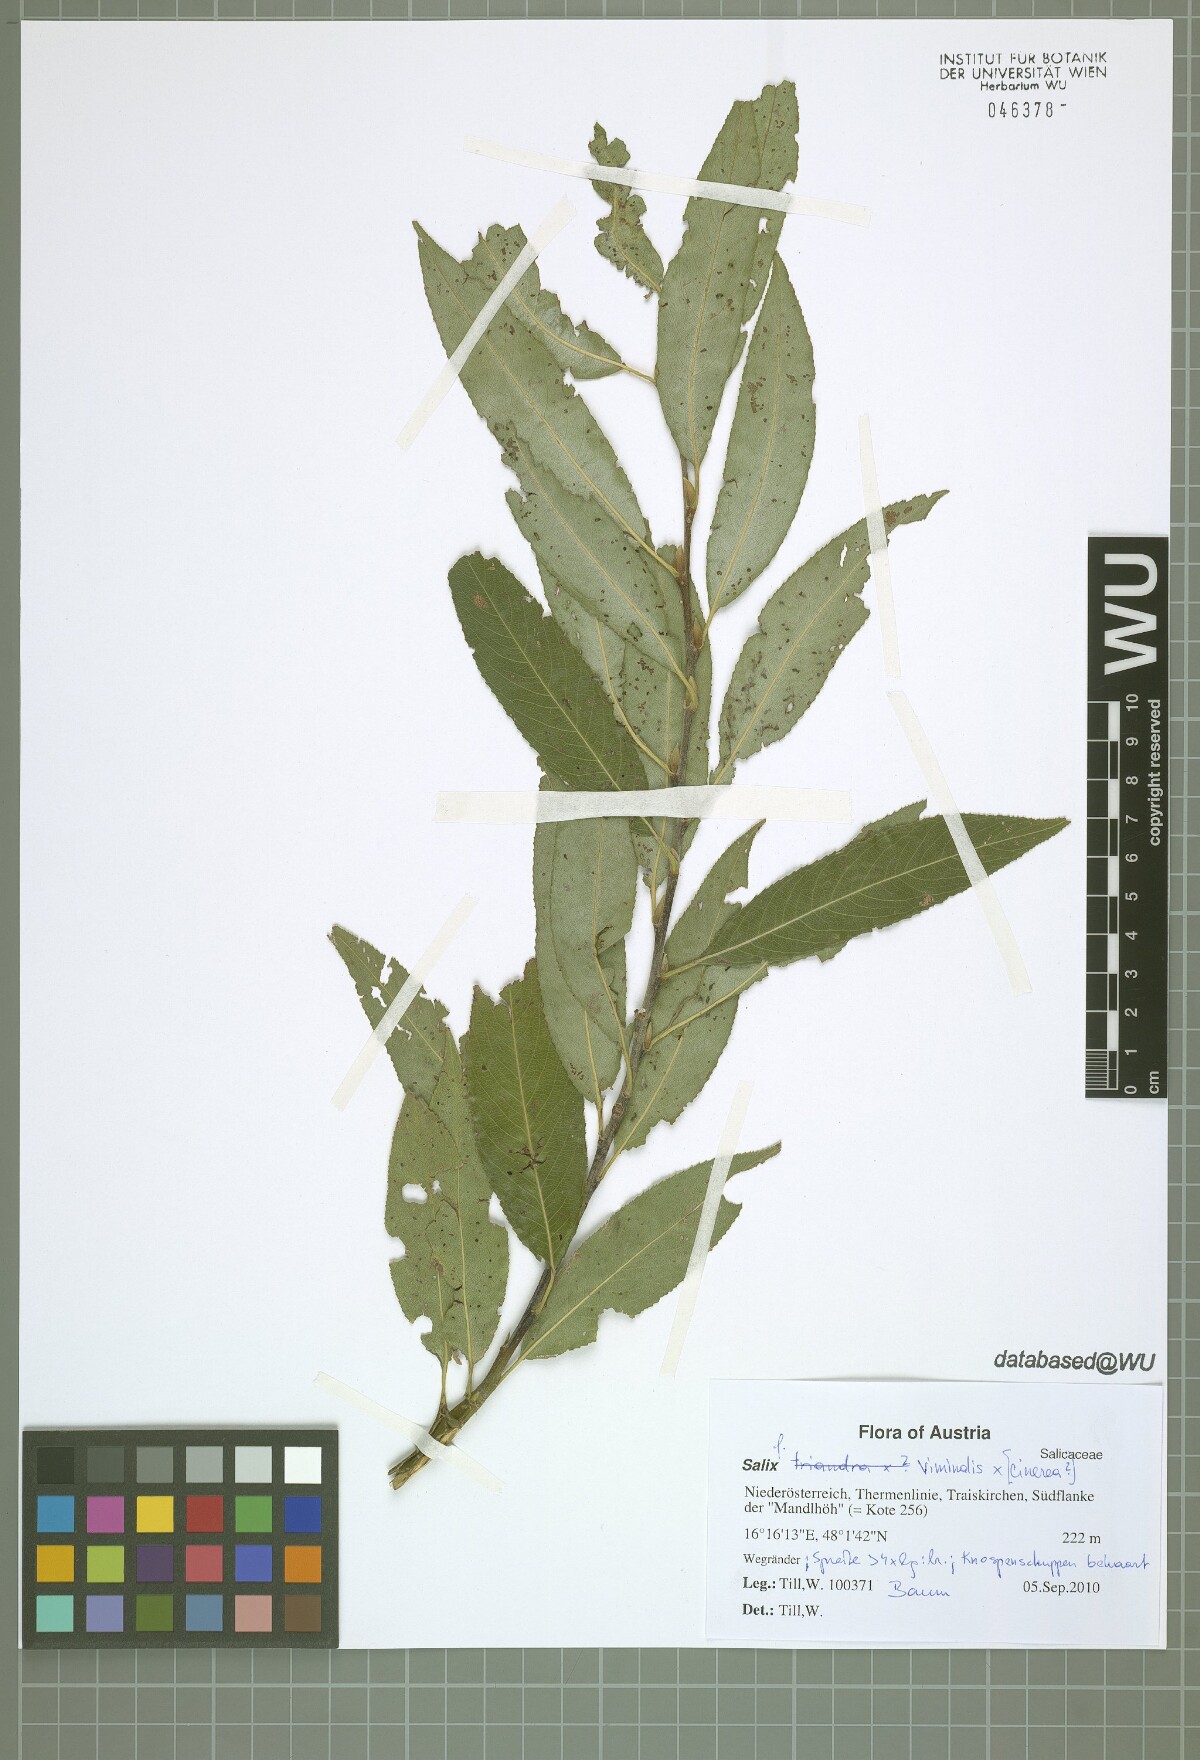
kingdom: Plantae
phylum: Tracheophyta
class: Magnoliopsida
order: Malpighiales
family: Salicaceae
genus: Salix
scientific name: Salix viminalis
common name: Osier
